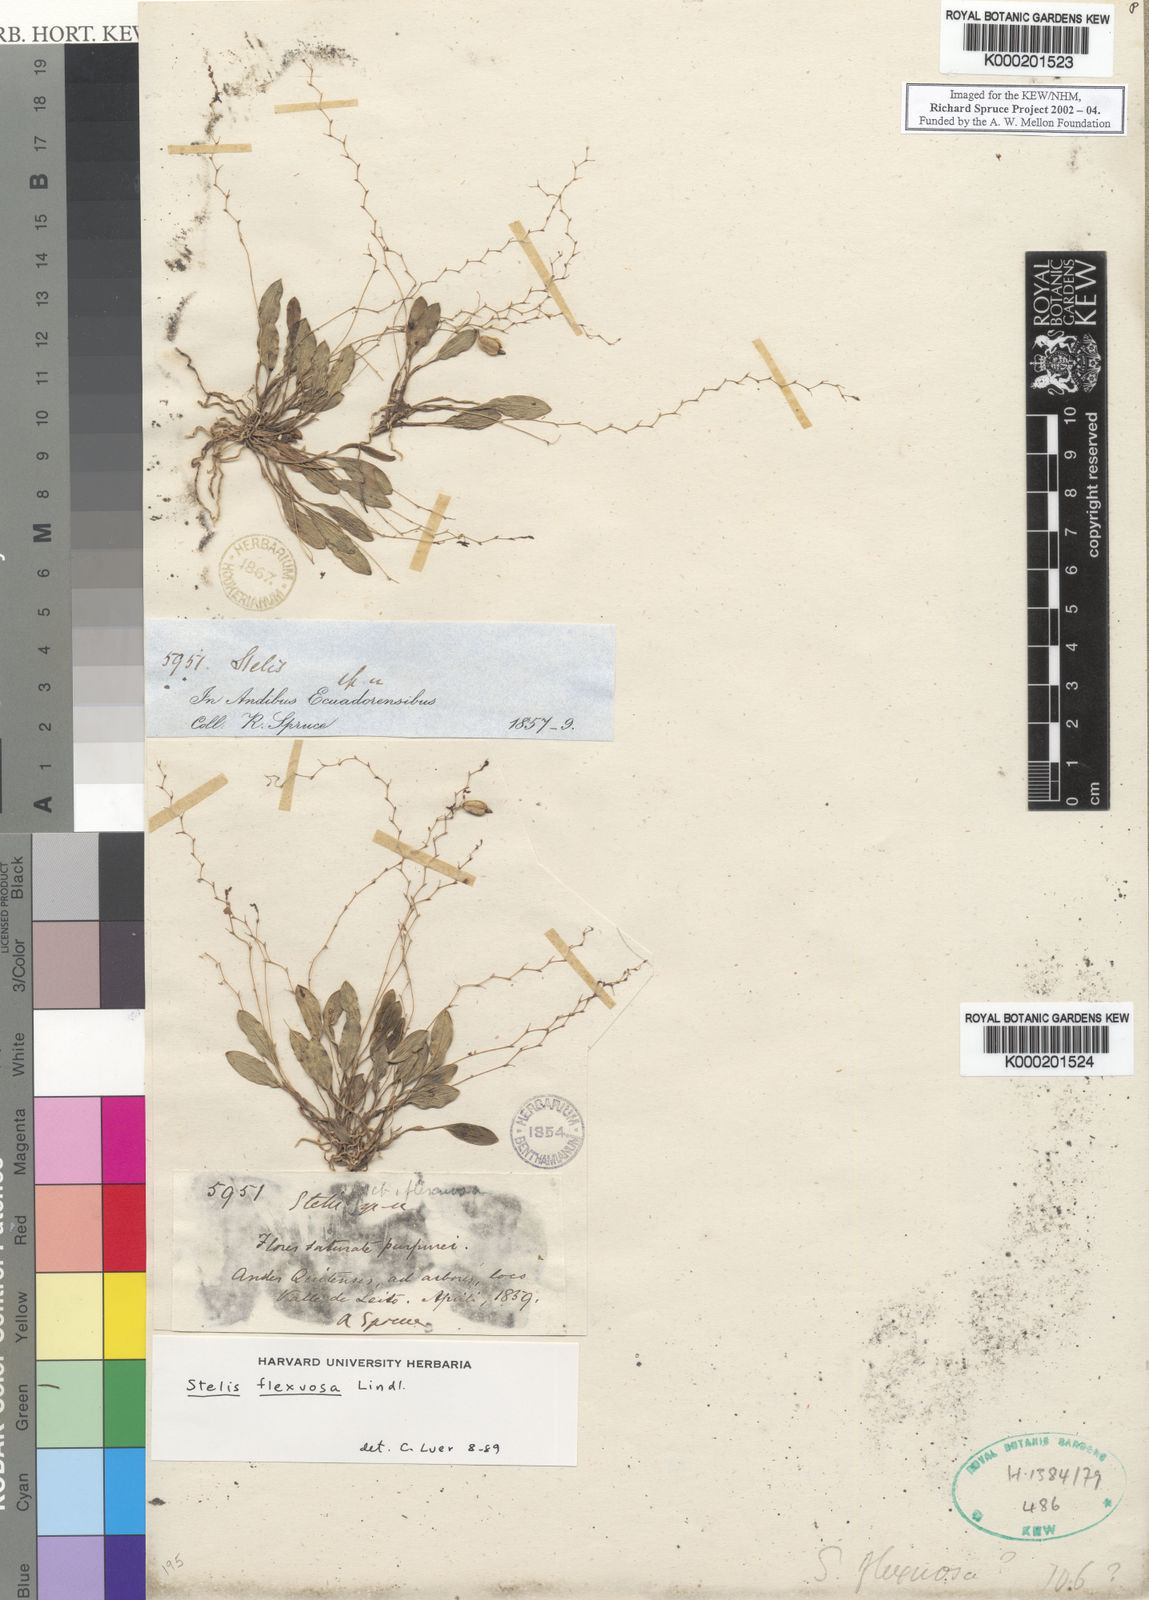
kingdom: Plantae
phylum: Tracheophyta
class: Liliopsida
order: Asparagales
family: Orchidaceae
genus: Stelis
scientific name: Stelis concinna
